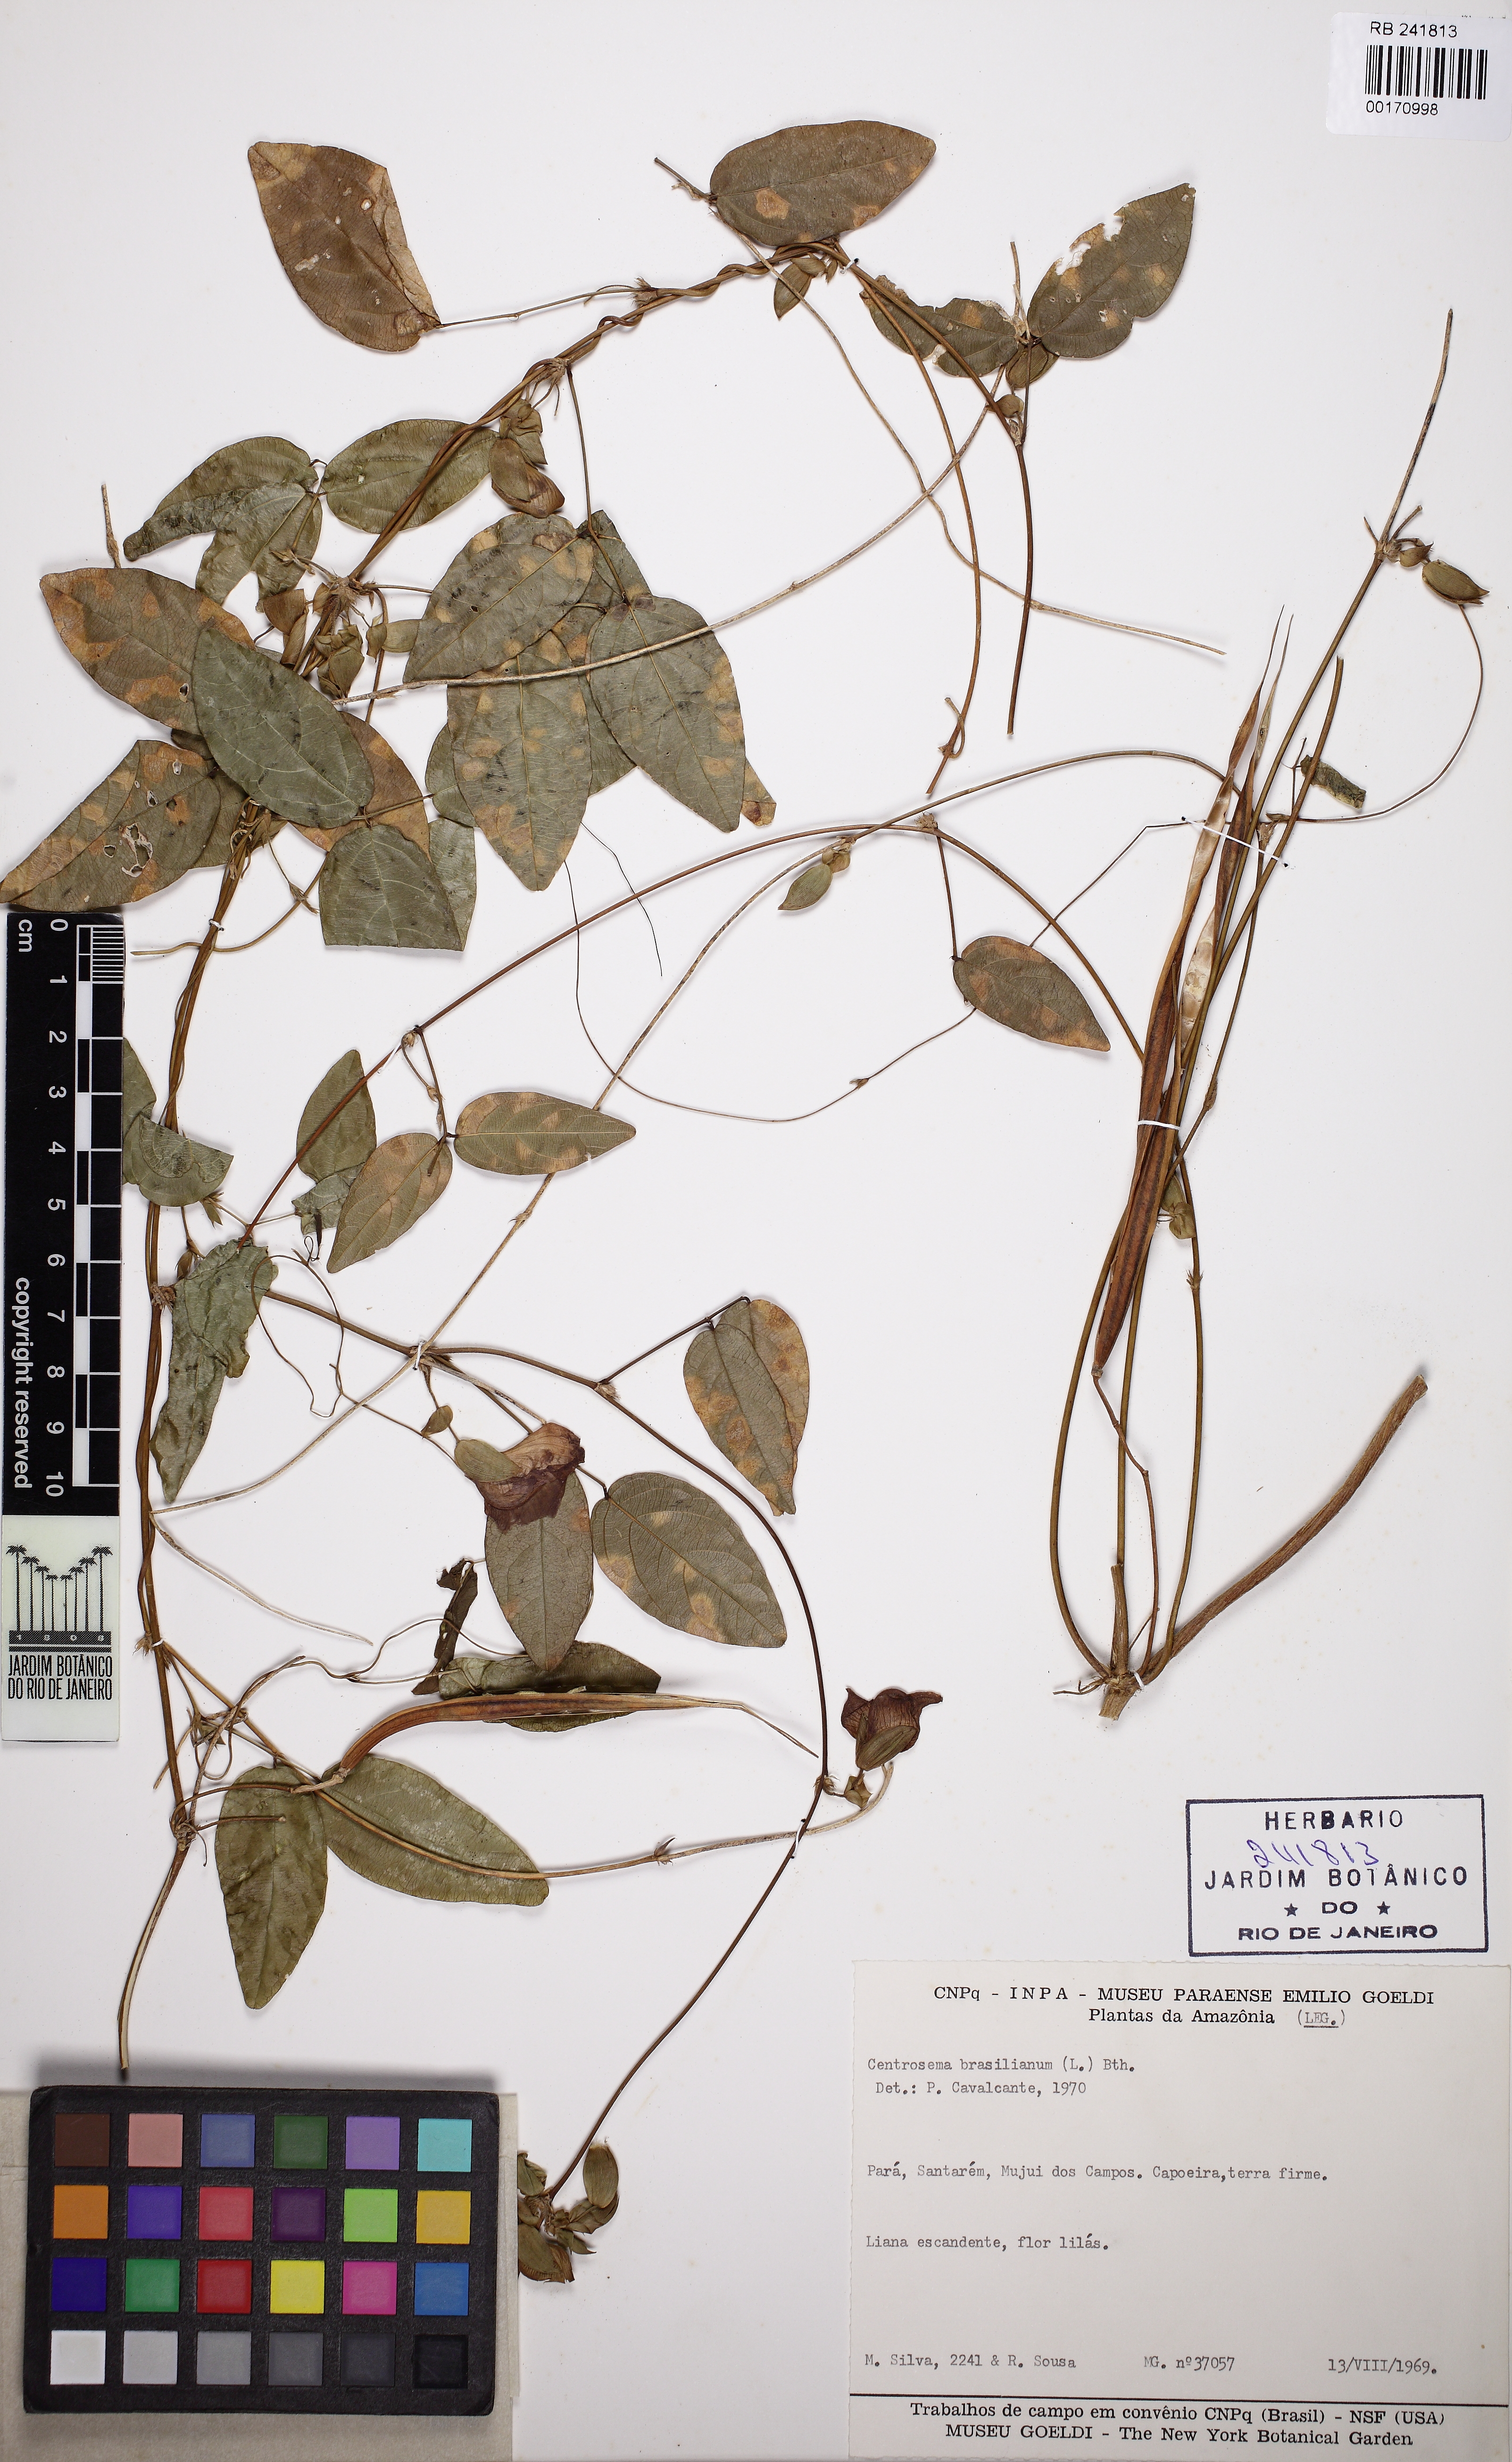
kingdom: Plantae
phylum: Tracheophyta
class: Magnoliopsida
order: Fabales
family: Fabaceae
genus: Centrosema
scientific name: Centrosema brasilianum
